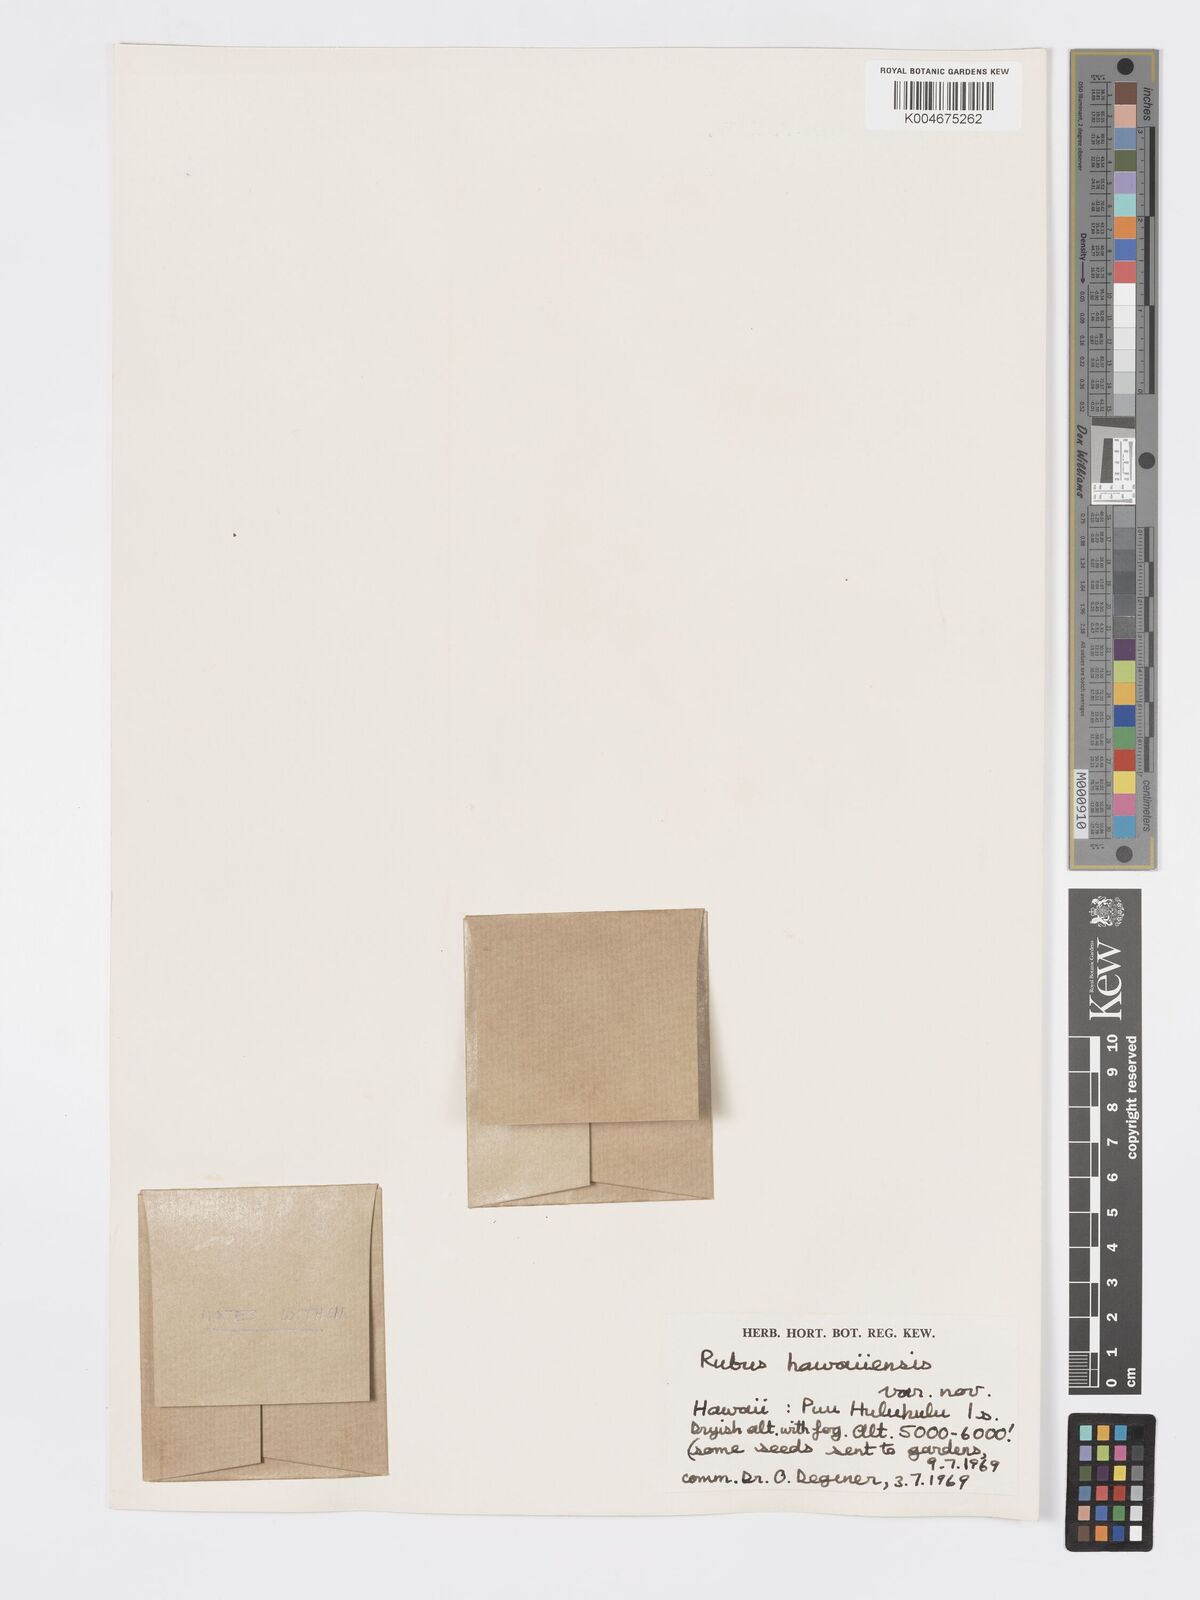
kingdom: Plantae
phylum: Tracheophyta
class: Magnoliopsida
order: Rosales
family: Rosaceae
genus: Rubus
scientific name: Rubus hawaiensis
